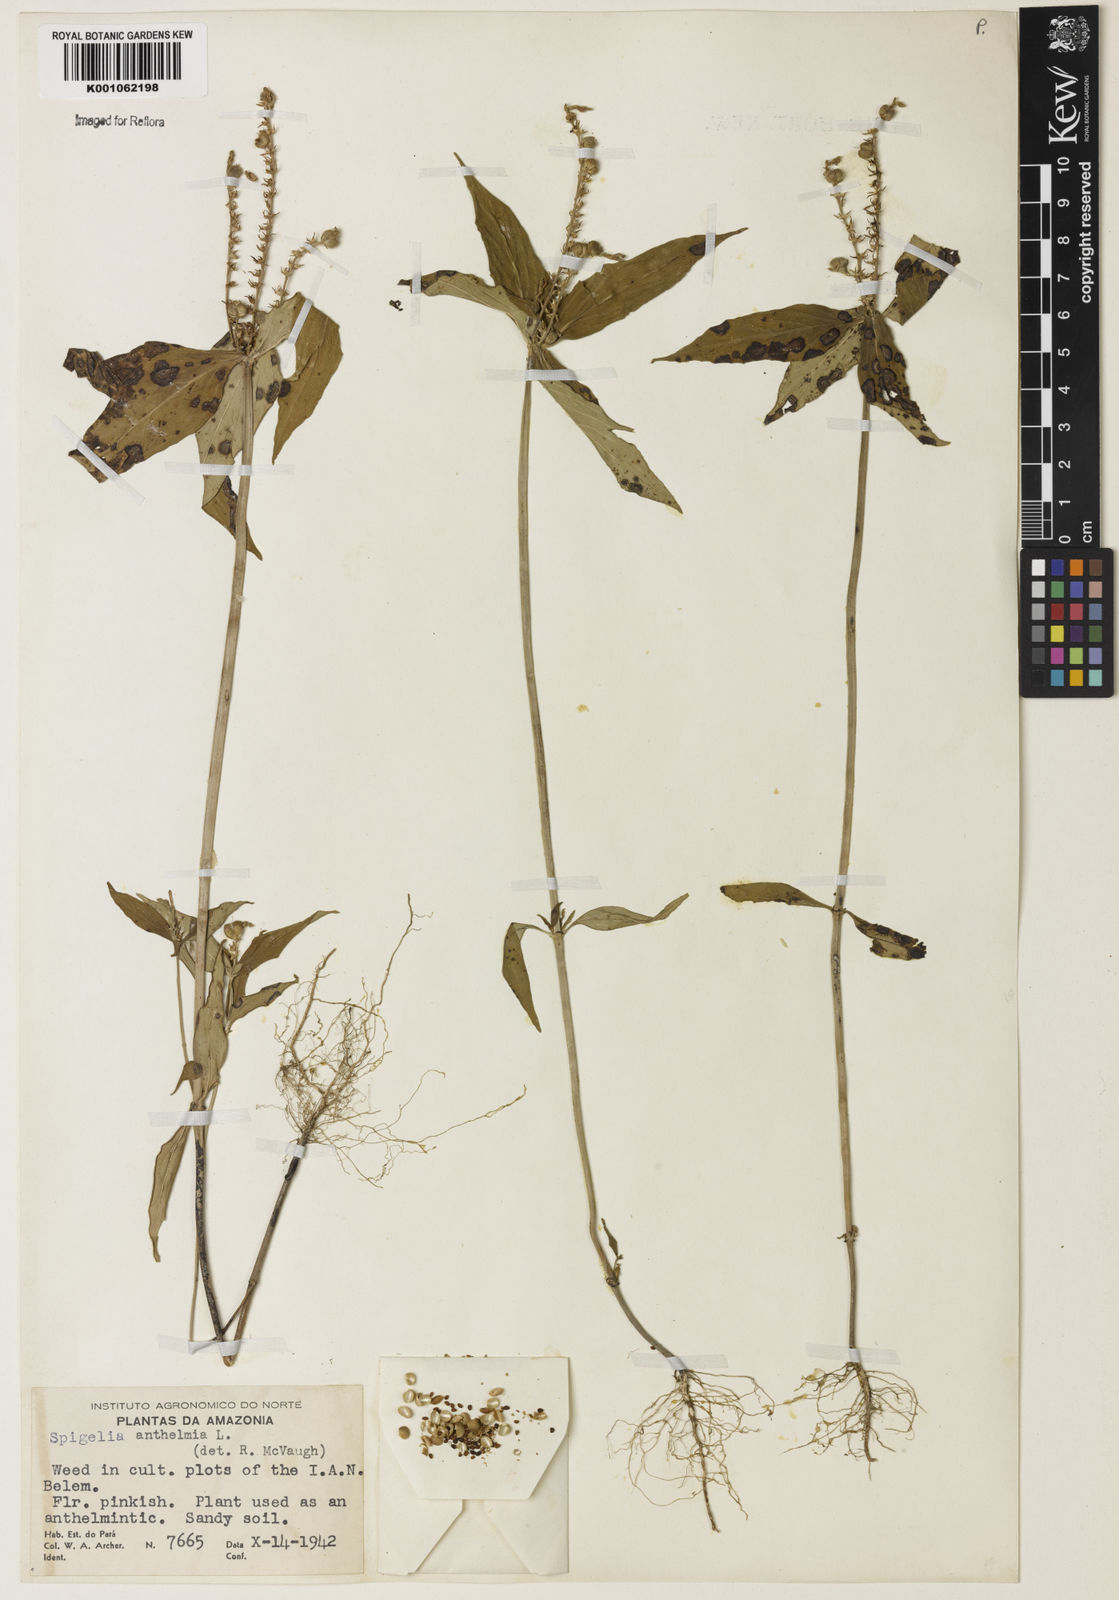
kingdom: Plantae
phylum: Tracheophyta
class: Magnoliopsida
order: Gentianales
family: Loganiaceae
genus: Spigelia
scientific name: Spigelia anthelmia
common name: West indian-pink
